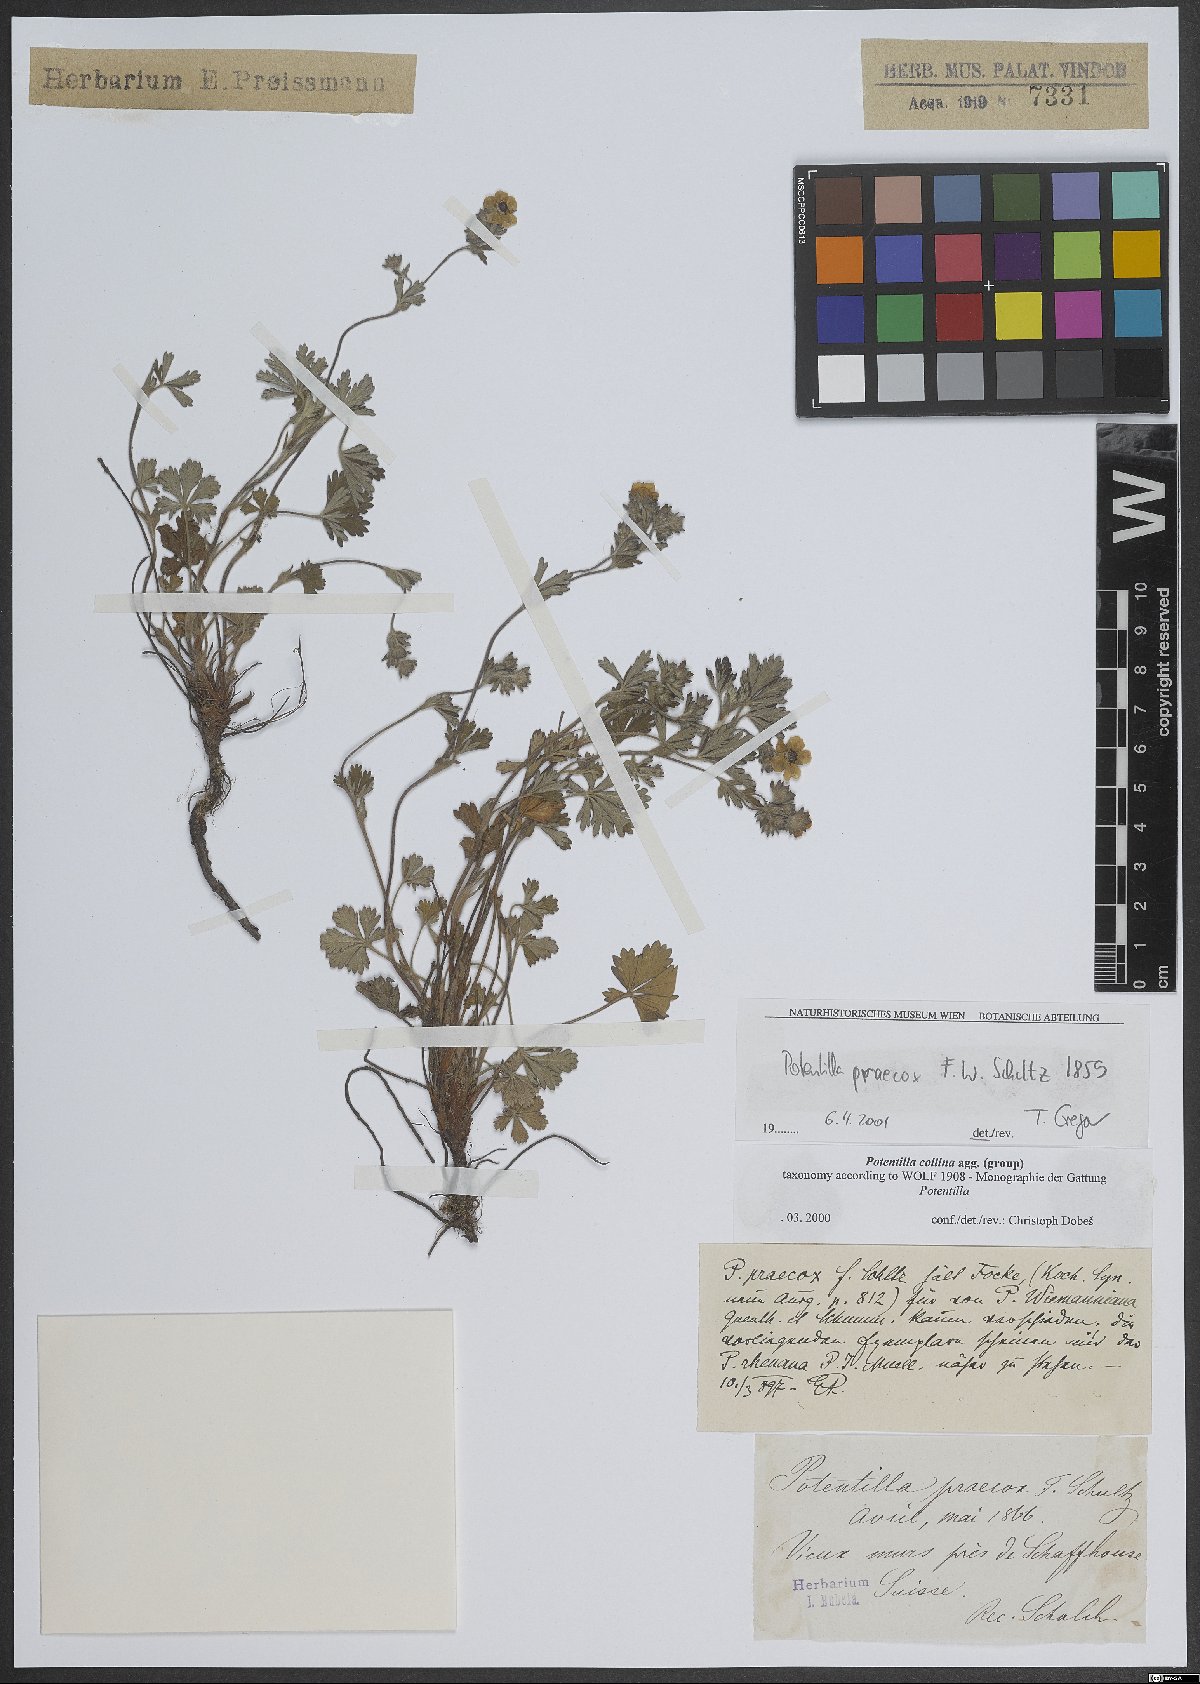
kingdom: Plantae
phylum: Tracheophyta
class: Magnoliopsida
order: Rosales
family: Rosaceae
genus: Potentilla
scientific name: Potentilla praecox
